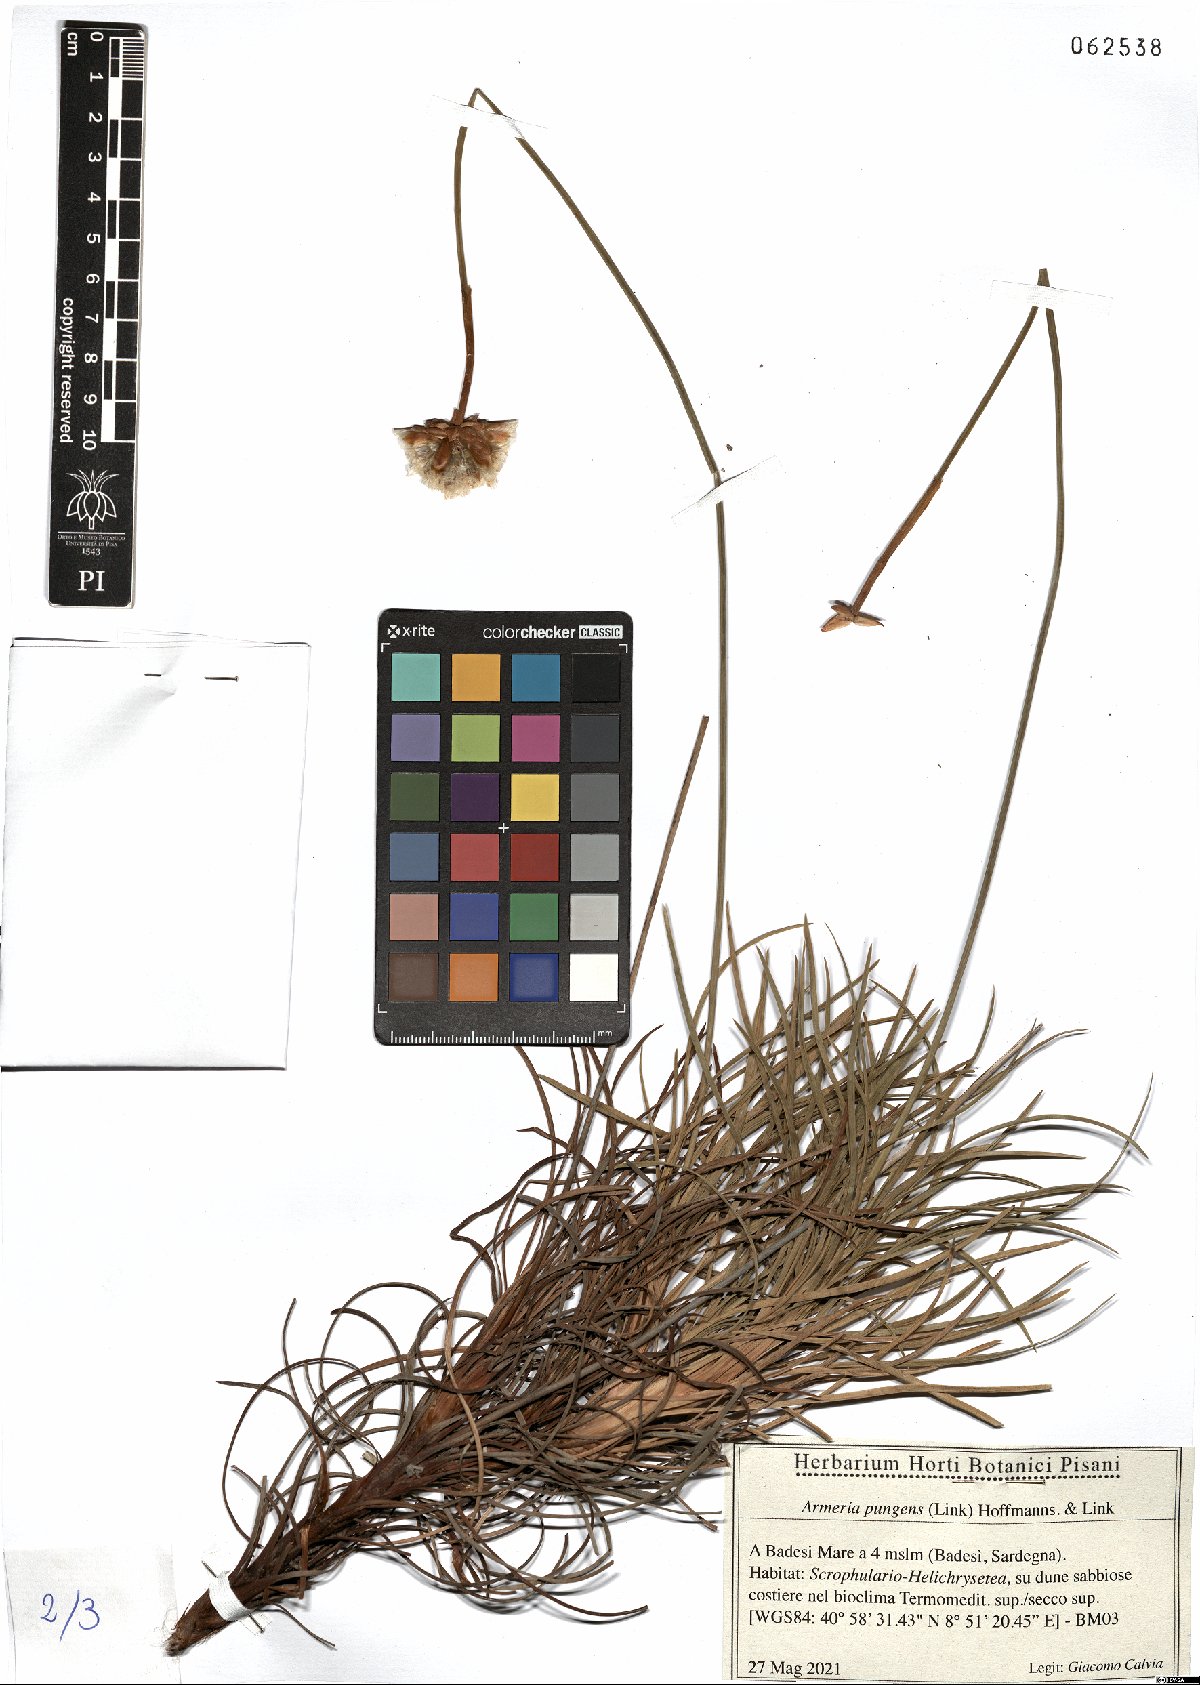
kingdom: Plantae
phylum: Tracheophyta
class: Magnoliopsida
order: Caryophyllales
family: Plumbaginaceae
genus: Armeria
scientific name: Armeria pungens
